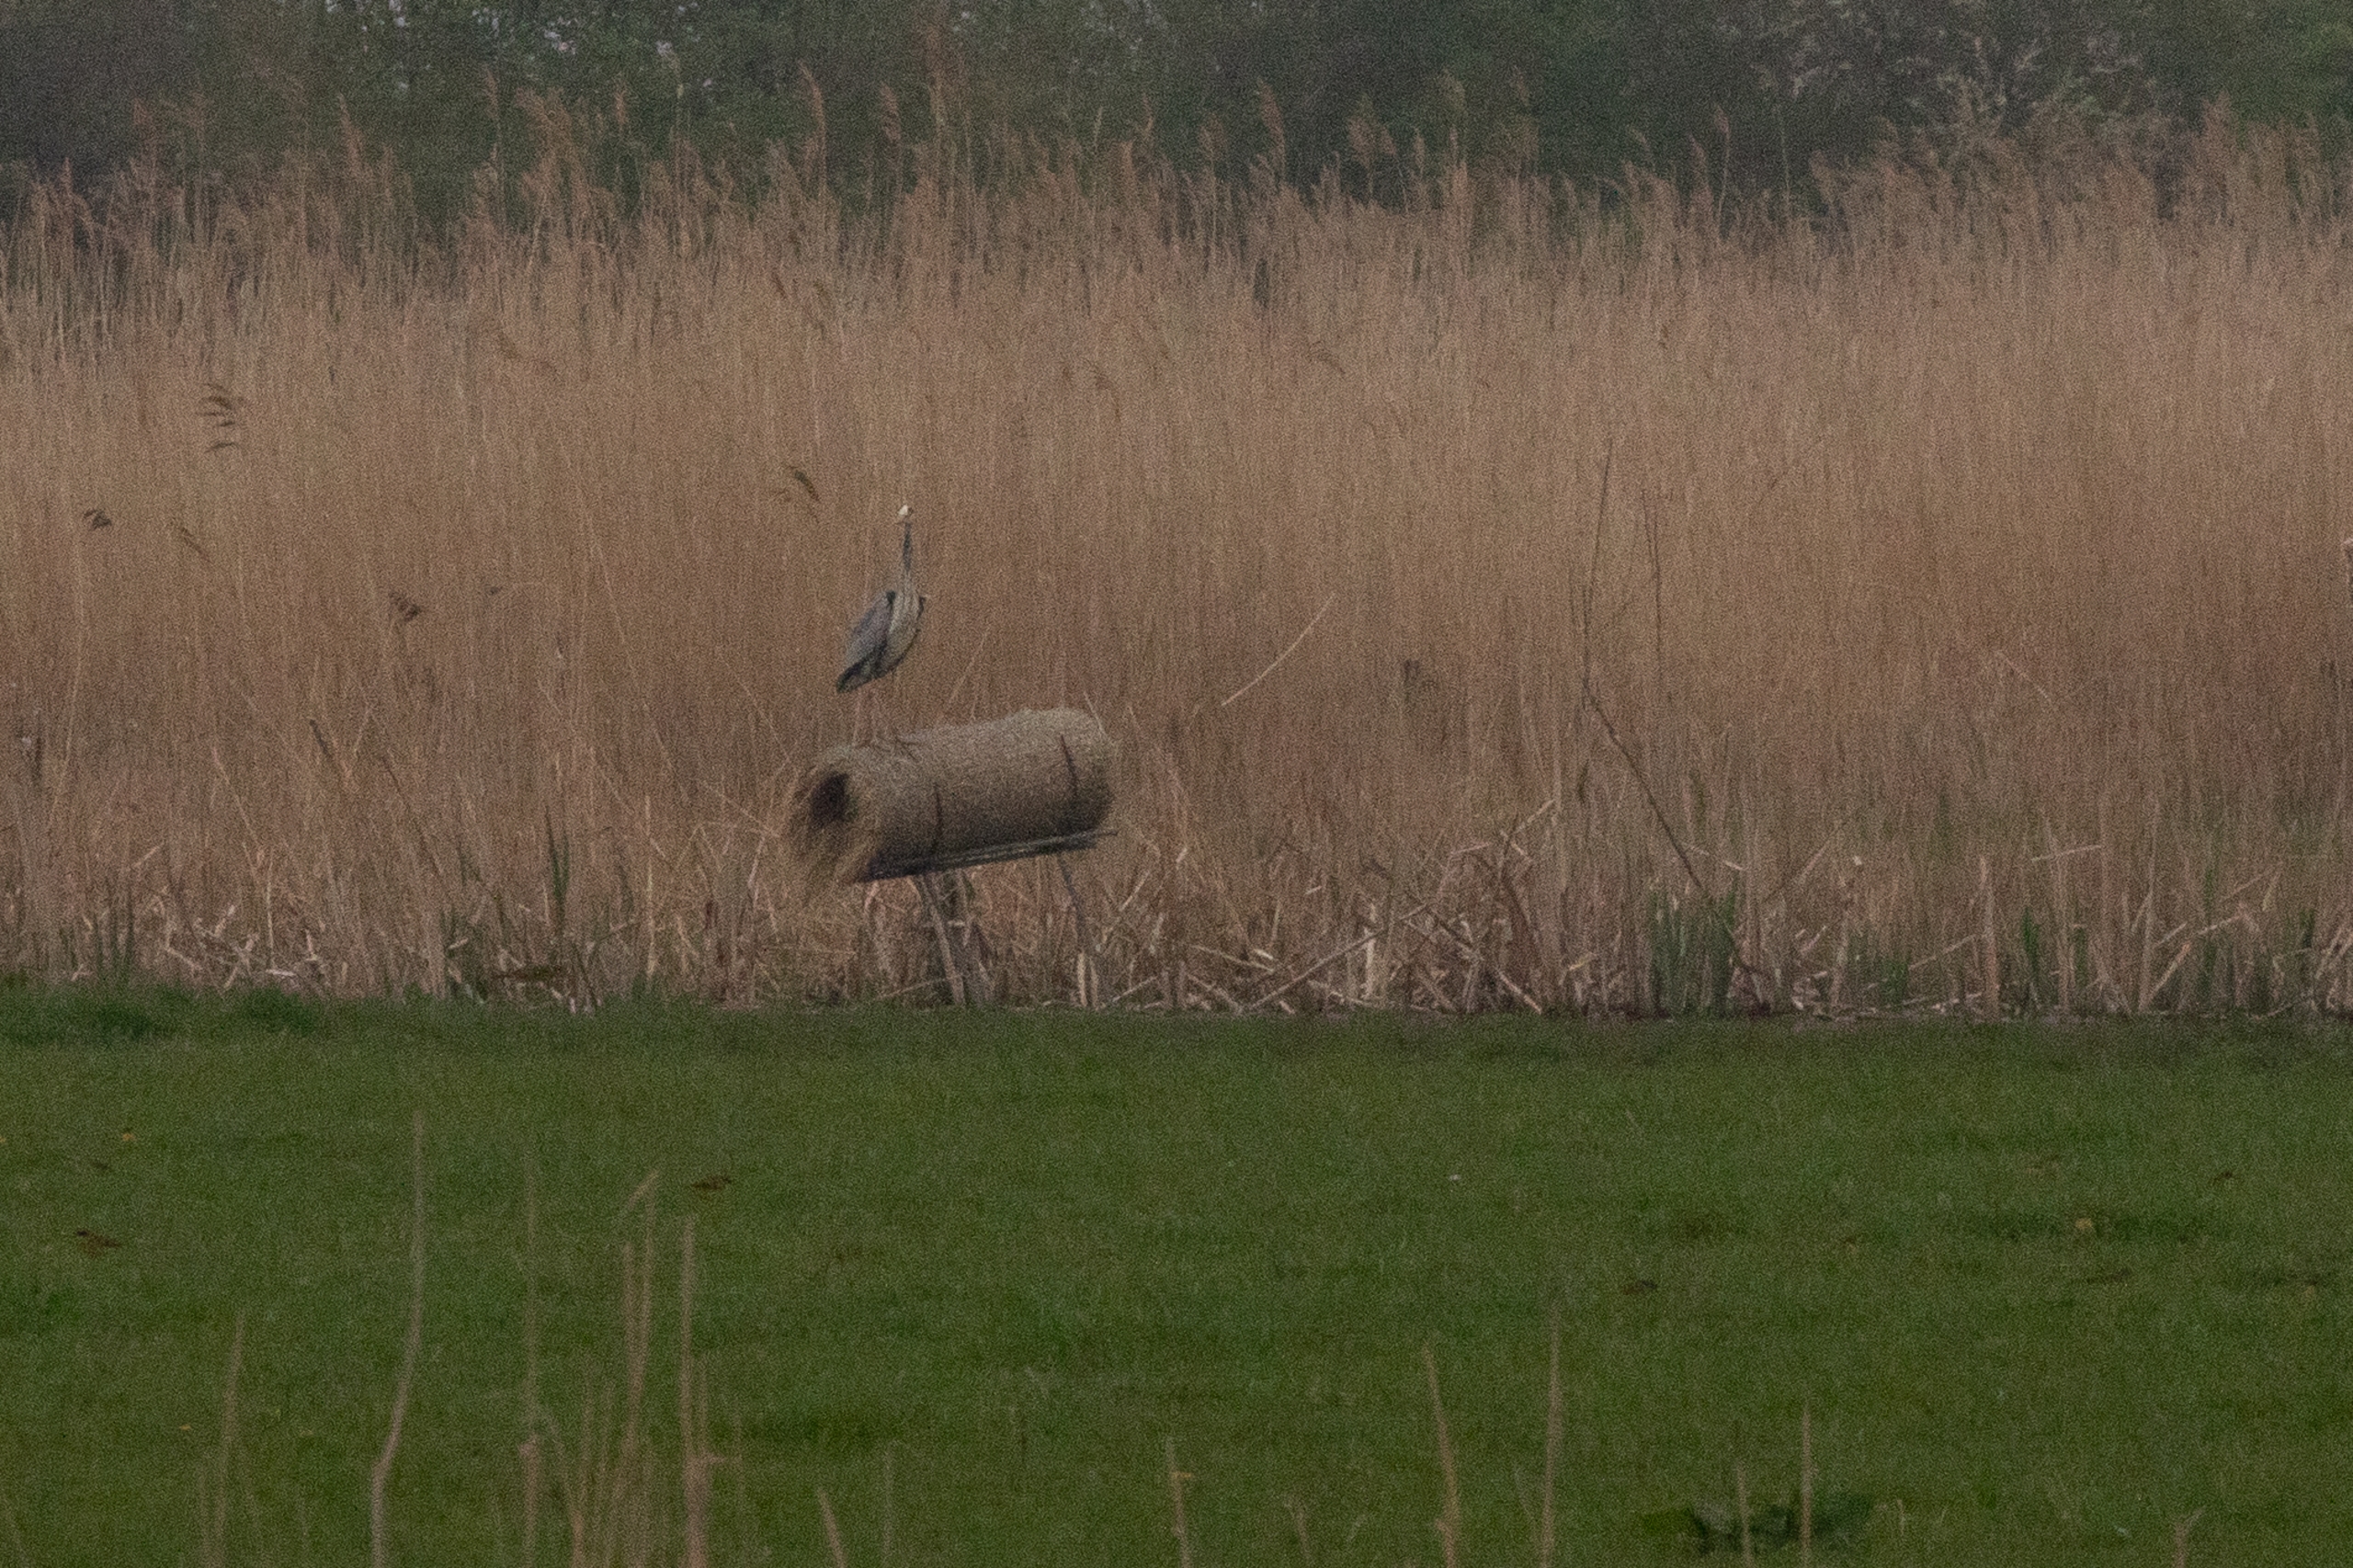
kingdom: Animalia
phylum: Chordata
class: Aves
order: Pelecaniformes
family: Ardeidae
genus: Ardea
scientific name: Ardea cinerea
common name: Fiskehejre
